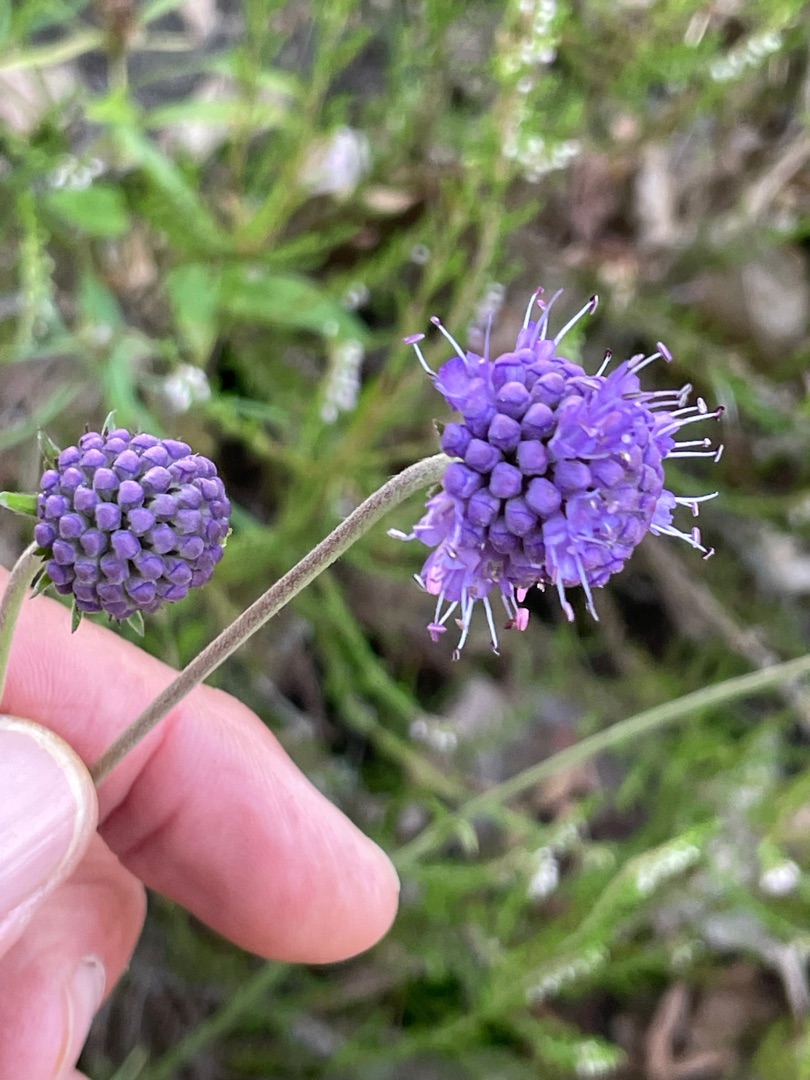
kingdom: Plantae
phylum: Tracheophyta
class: Magnoliopsida
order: Dipsacales
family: Caprifoliaceae
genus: Succisa
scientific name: Succisa pratensis
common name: Djævelsbid
